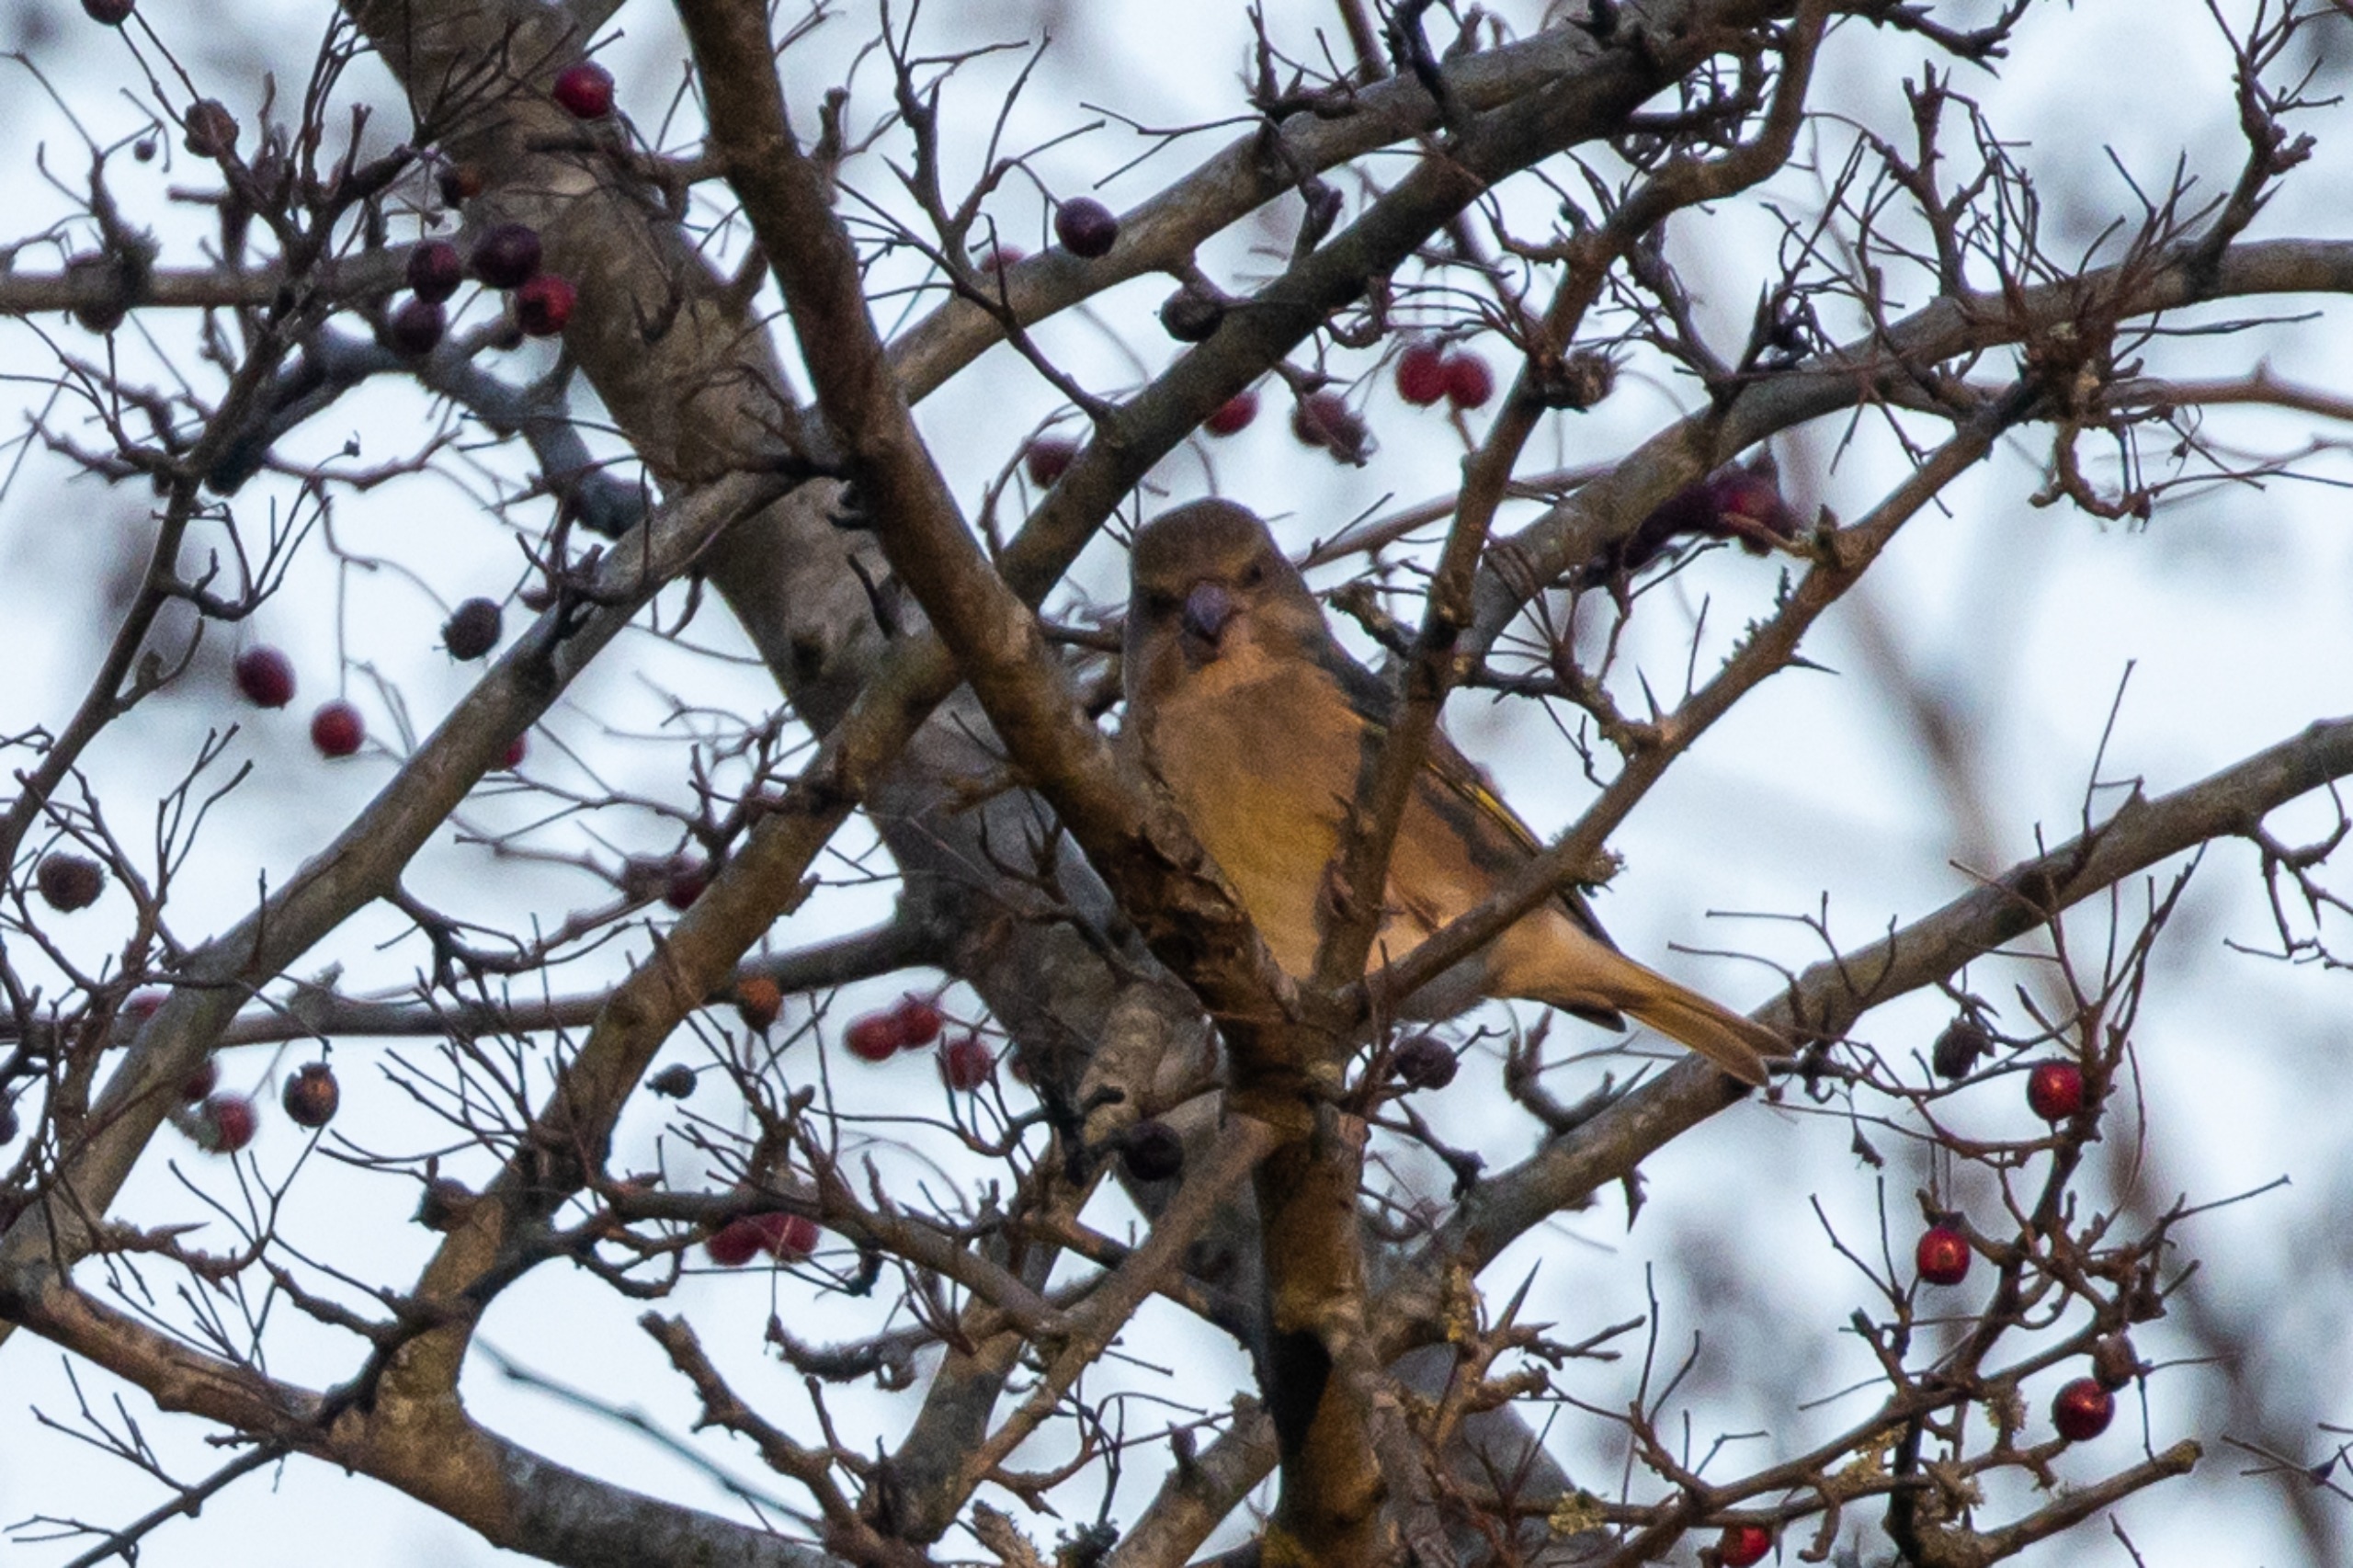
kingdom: Plantae
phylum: Tracheophyta
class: Liliopsida
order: Poales
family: Poaceae
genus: Chloris
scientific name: Chloris chloris
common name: Grønirisk
